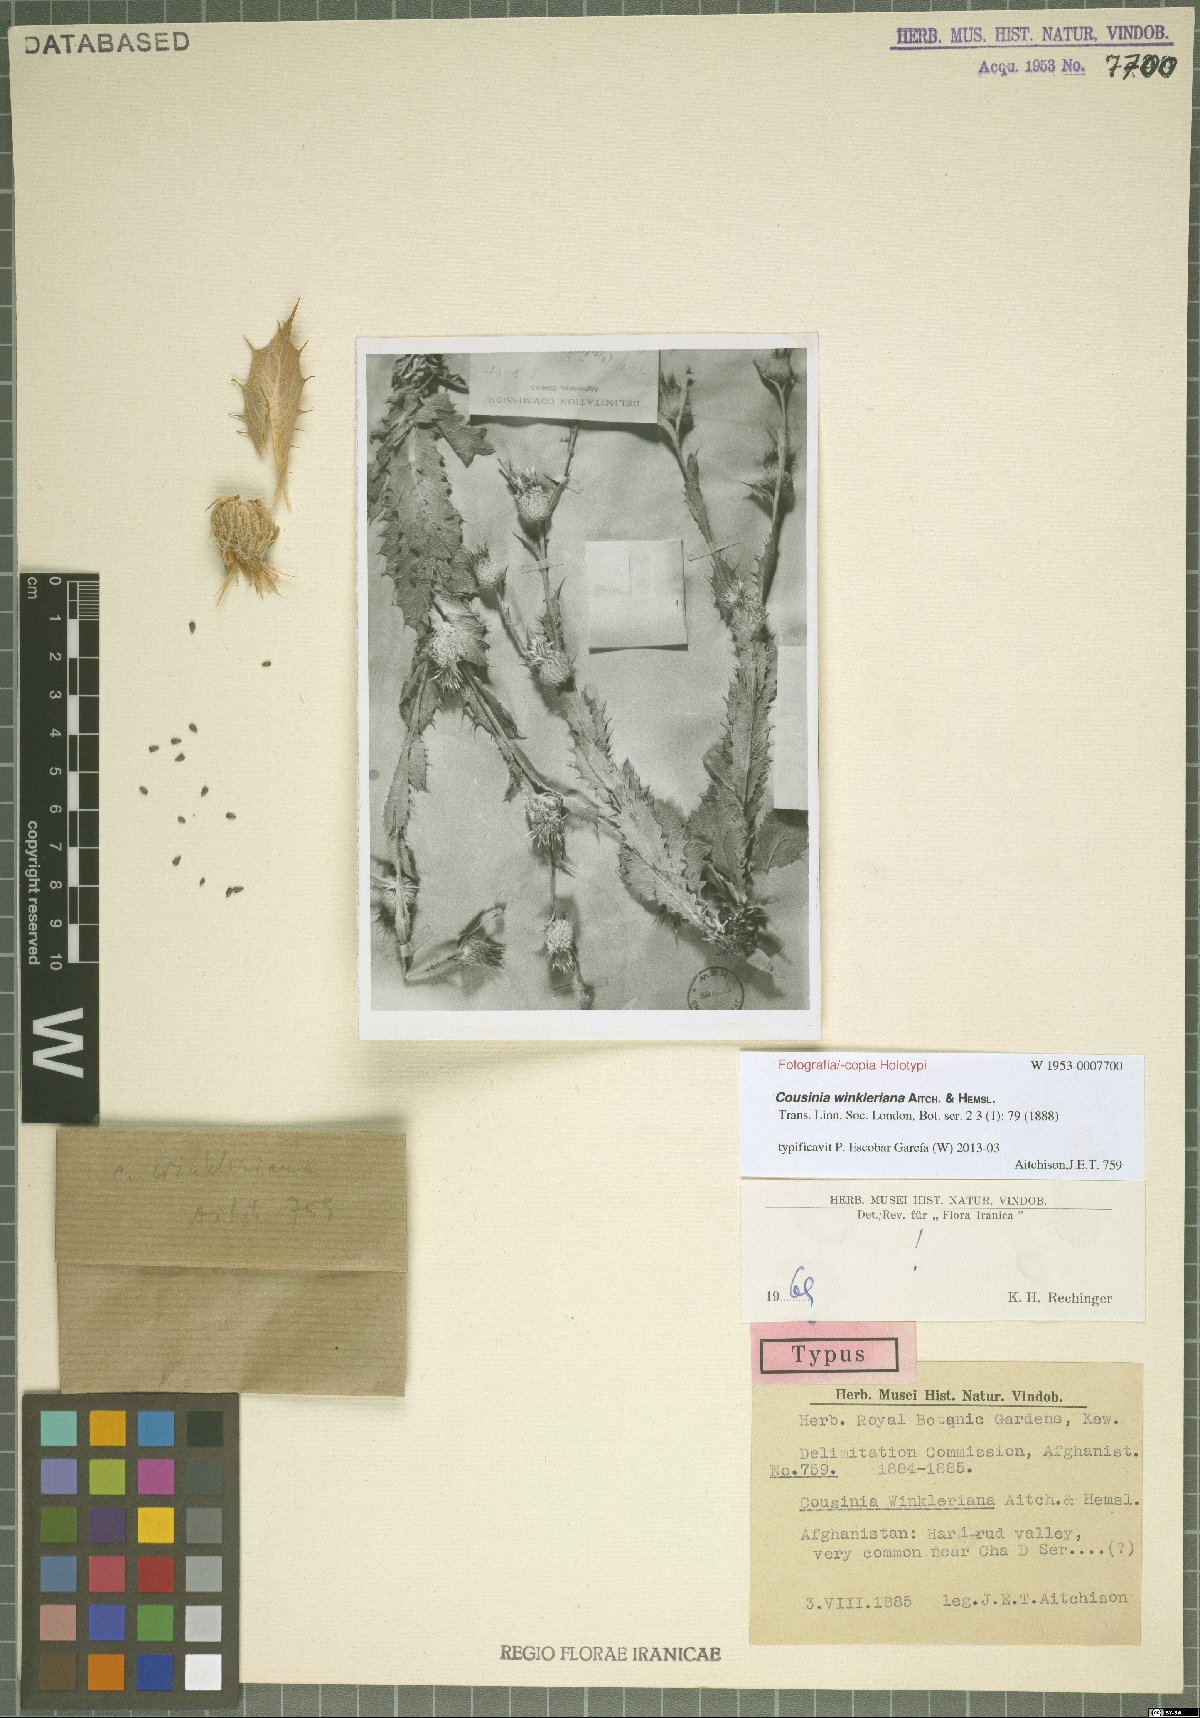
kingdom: Plantae
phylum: Tracheophyta
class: Magnoliopsida
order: Asterales
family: Asteraceae
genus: Cousinia
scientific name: Cousinia winkleriana
